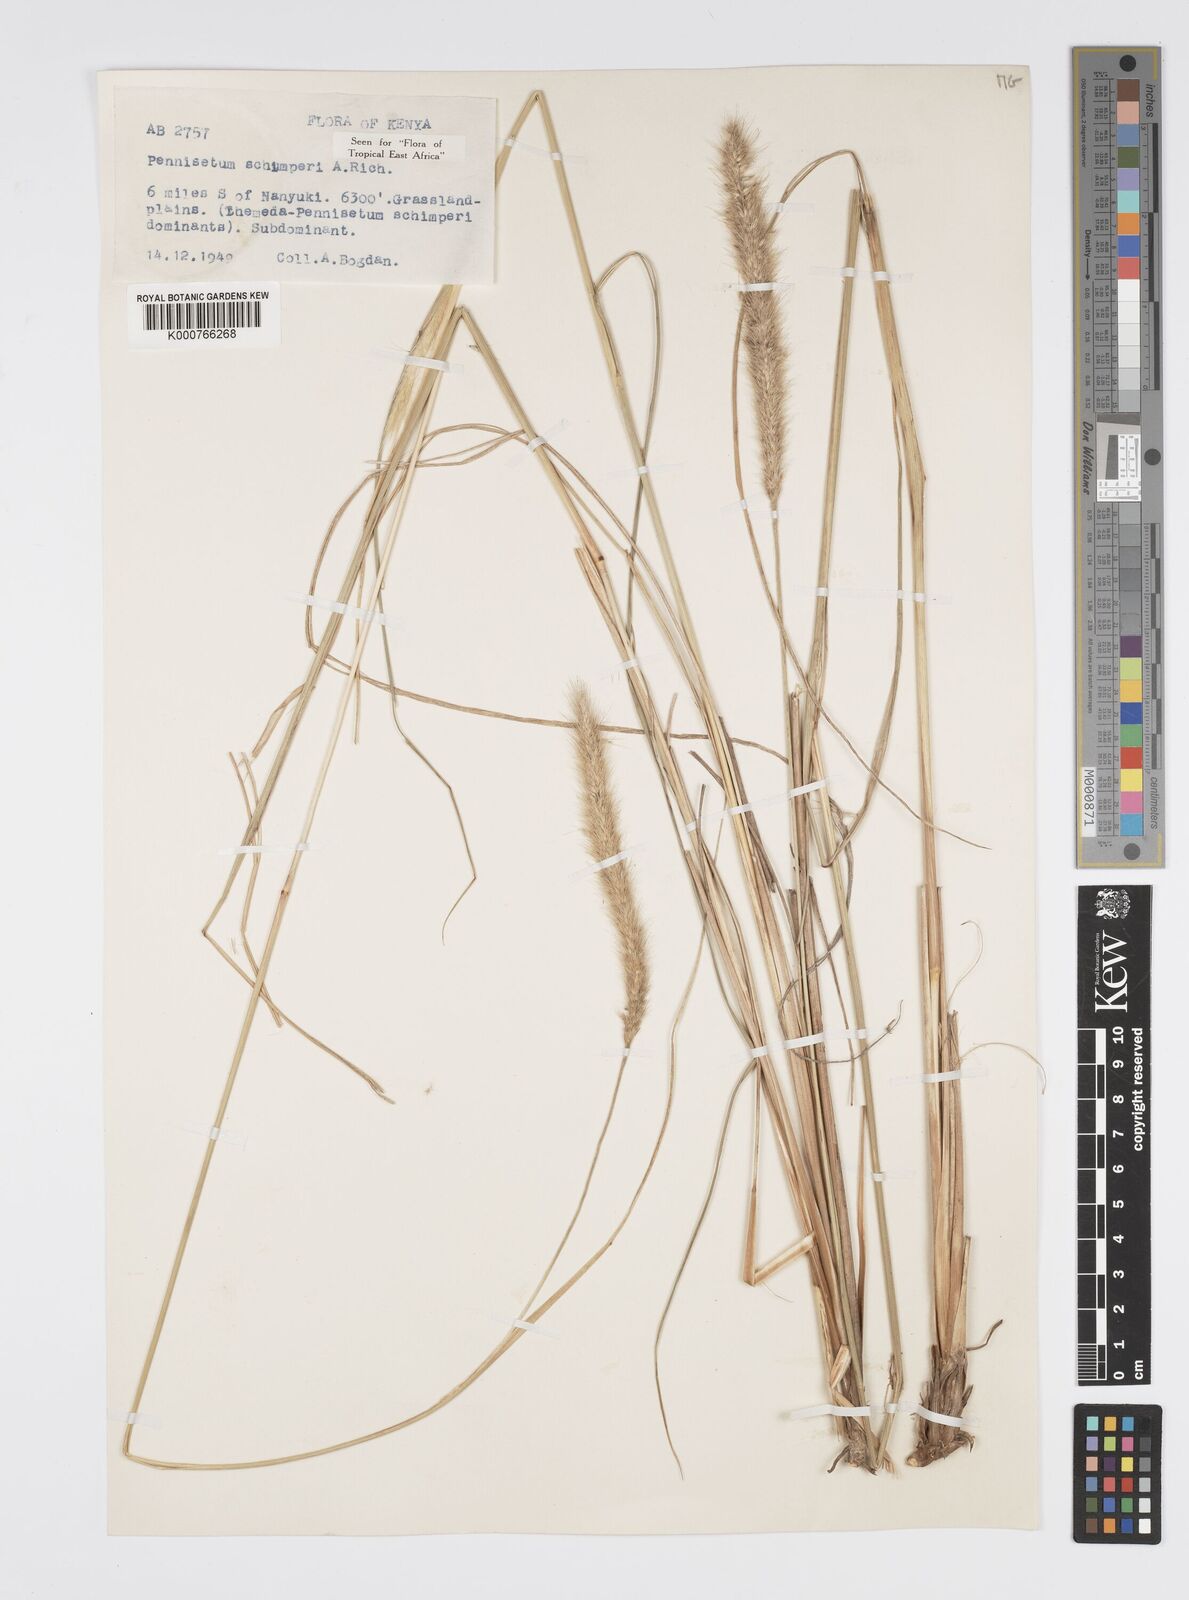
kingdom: Plantae
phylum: Tracheophyta
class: Liliopsida
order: Poales
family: Poaceae
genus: Cenchrus
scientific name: Cenchrus sphacelatus
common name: Bulgras
